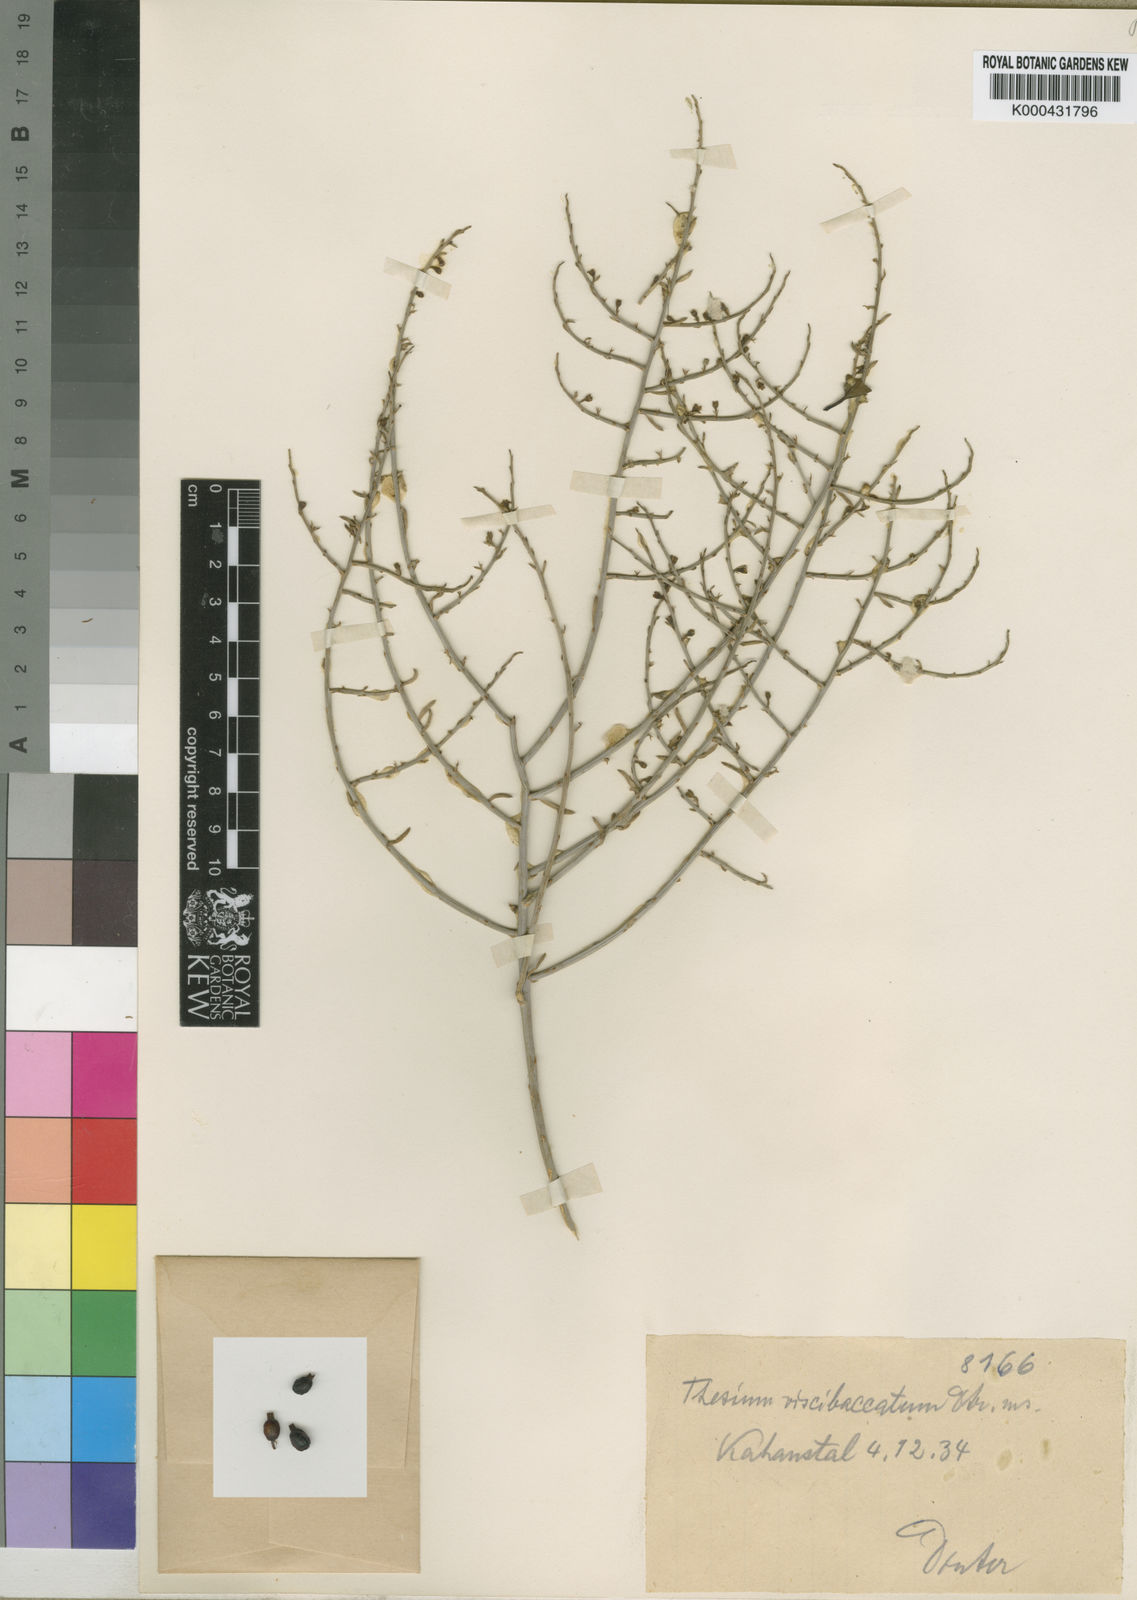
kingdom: Plantae
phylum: Tracheophyta
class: Magnoliopsida
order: Santalales
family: Thesiaceae
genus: Thesium
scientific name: Thesium
